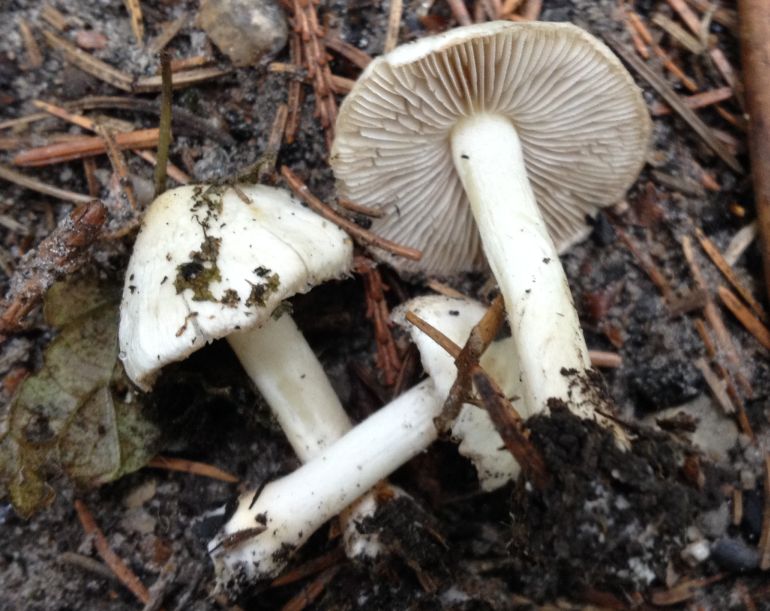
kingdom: Fungi
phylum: Basidiomycota
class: Agaricomycetes
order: Agaricales
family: Inocybaceae
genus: Inocybe
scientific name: Inocybe
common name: almindelig trævlhat
